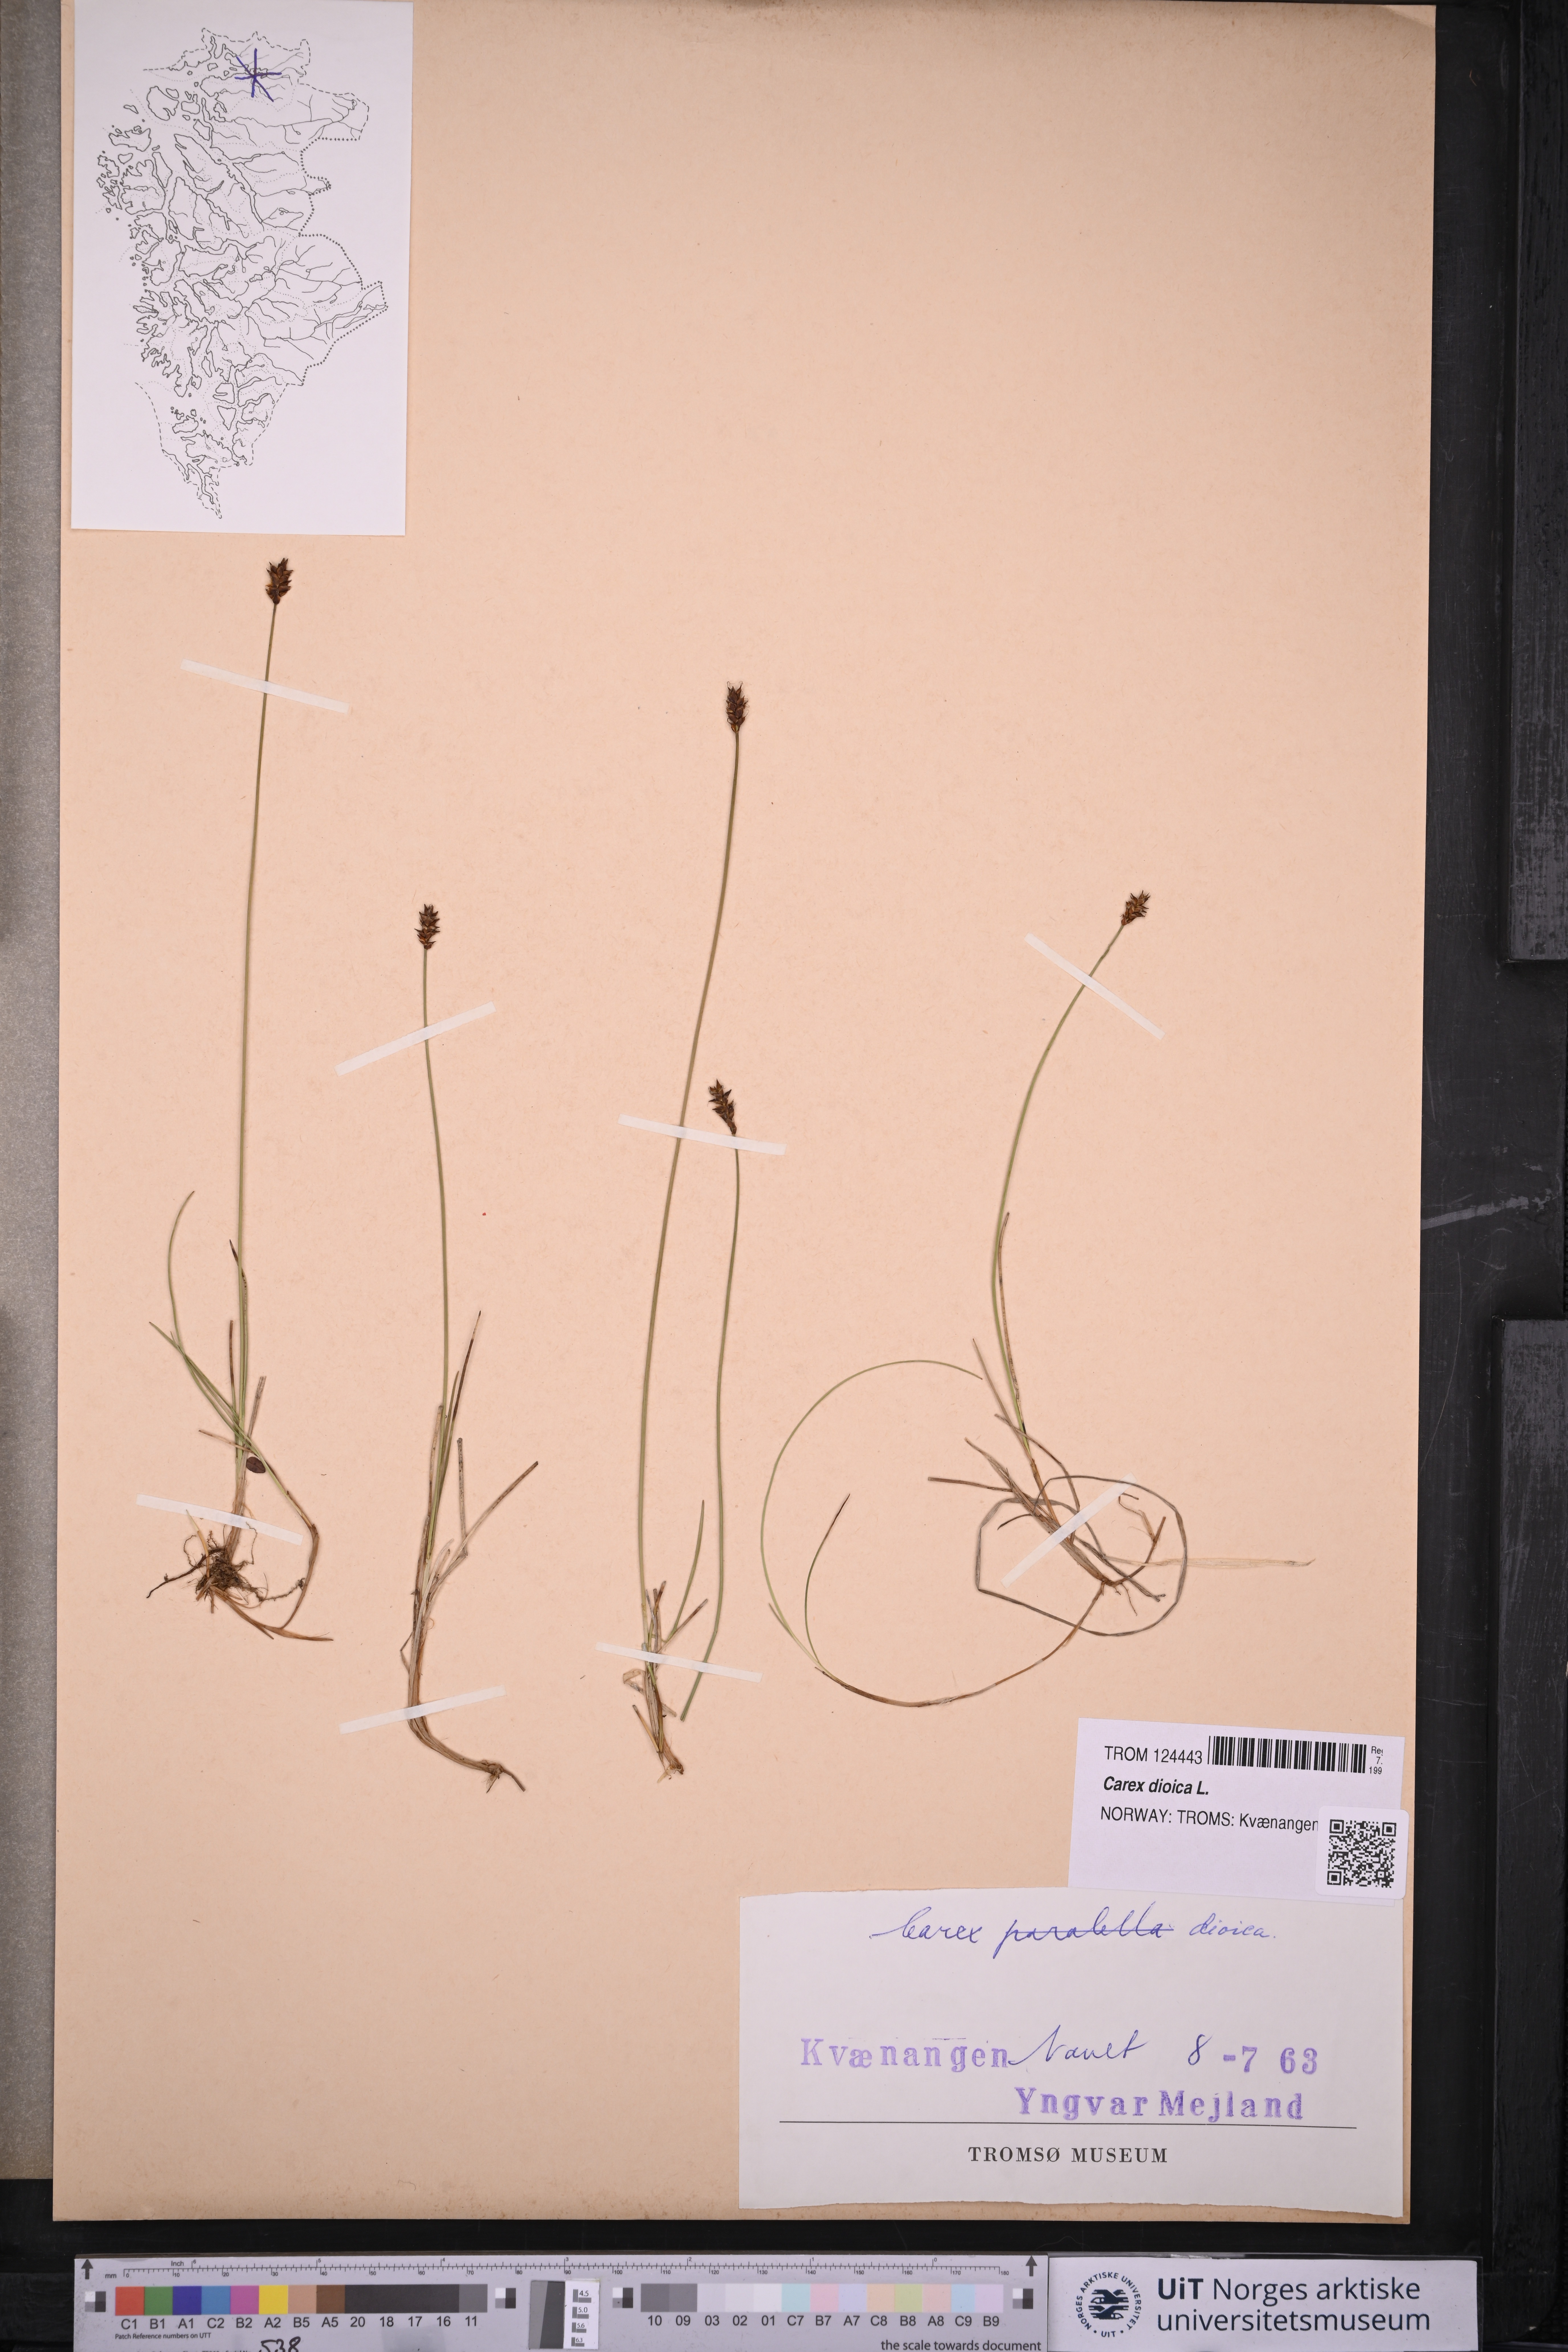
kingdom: Plantae
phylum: Tracheophyta
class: Liliopsida
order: Poales
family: Cyperaceae
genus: Carex
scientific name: Carex dioica
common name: Dioecious sedge
